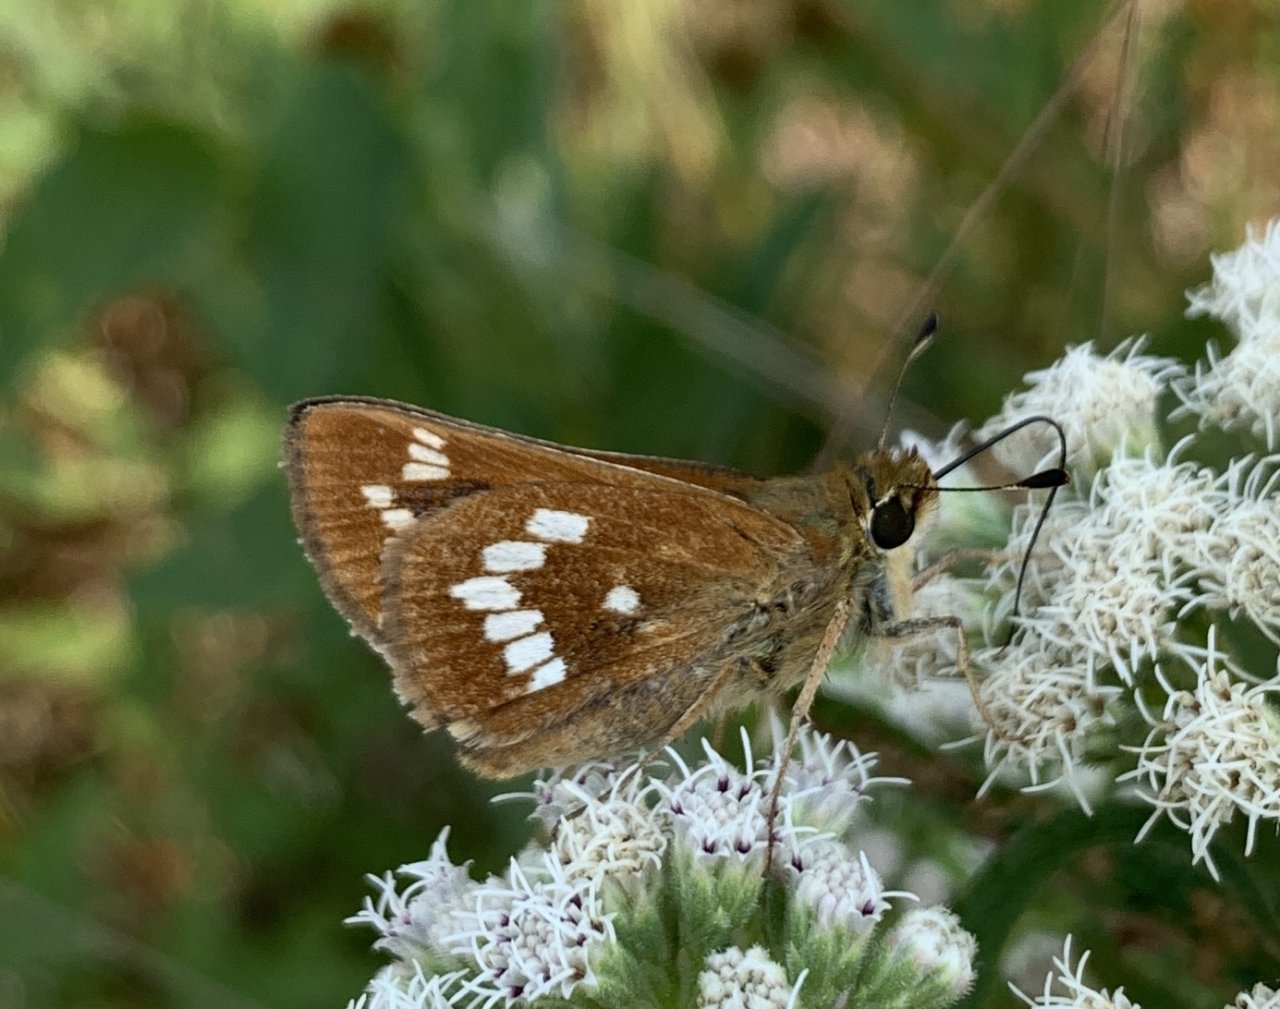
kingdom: Animalia
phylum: Arthropoda
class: Insecta
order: Lepidoptera
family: Hesperiidae
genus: Hesperia
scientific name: Hesperia leonardus
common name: Leonard's Skipper
